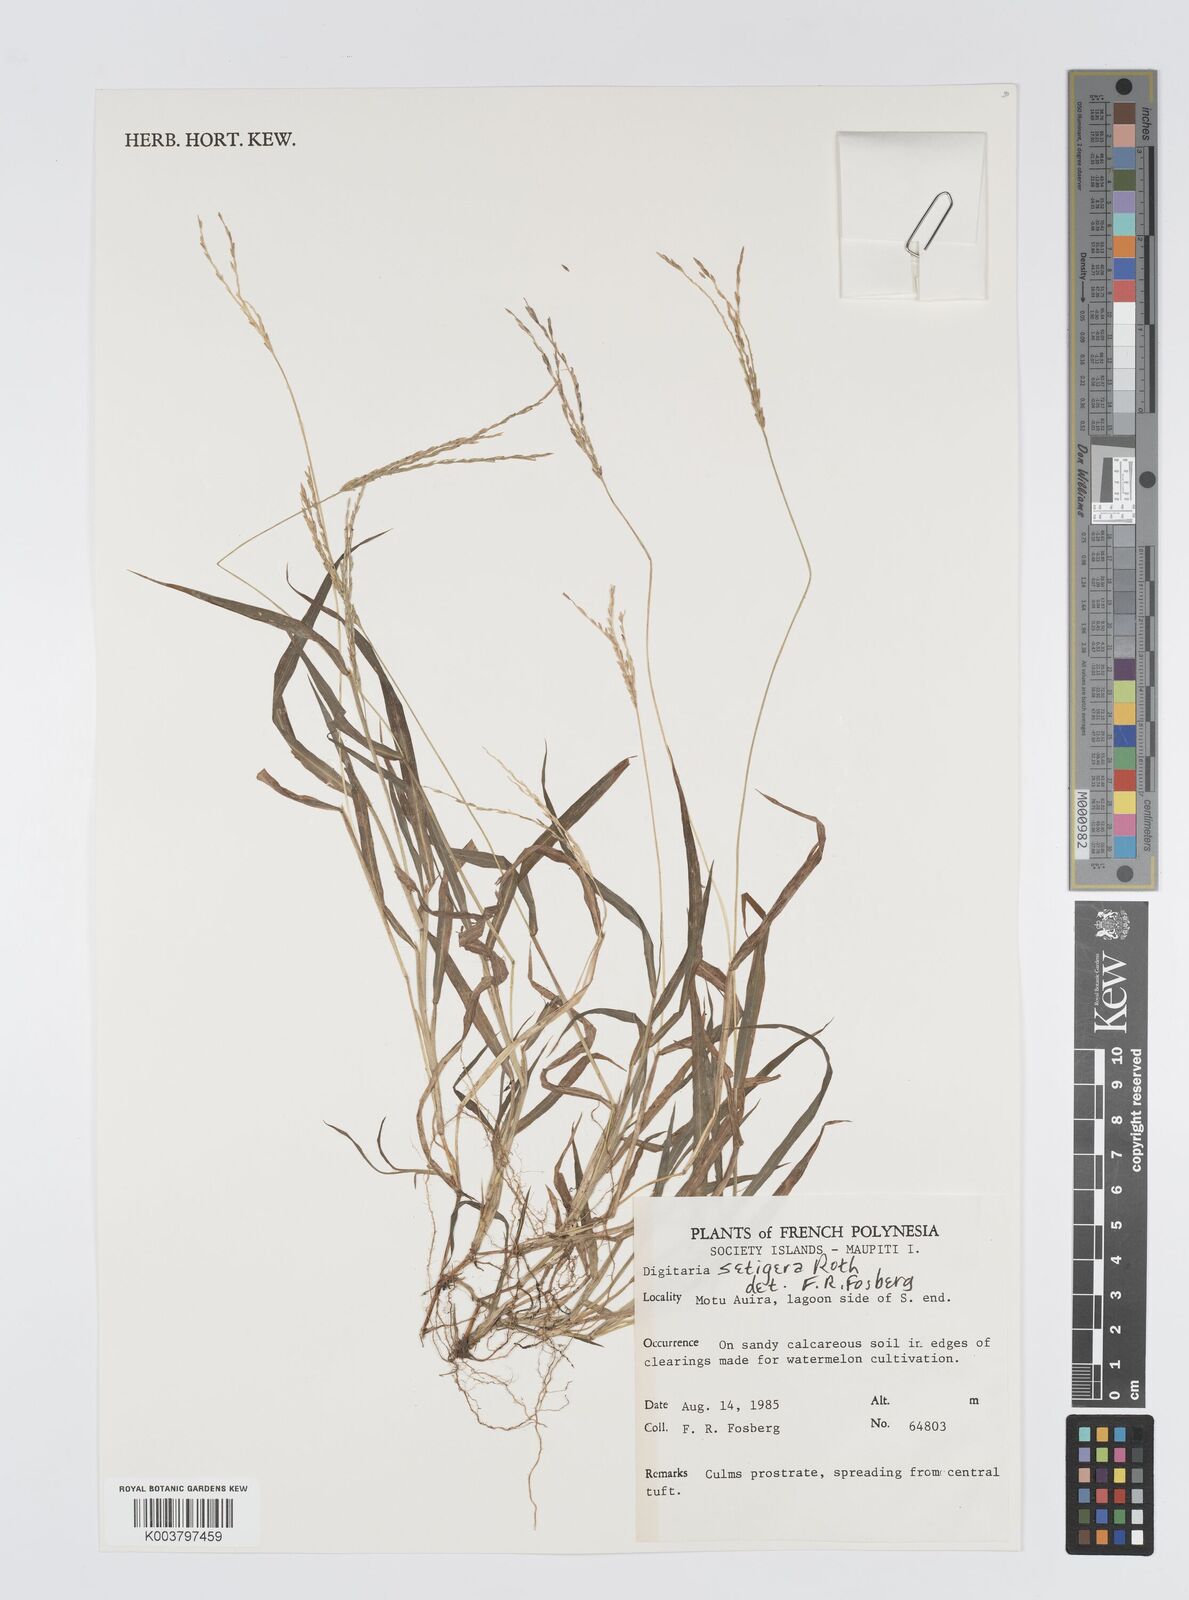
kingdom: Plantae
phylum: Tracheophyta
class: Liliopsida
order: Poales
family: Poaceae
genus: Digitaria
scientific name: Digitaria setigera
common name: East indian crabgrass
